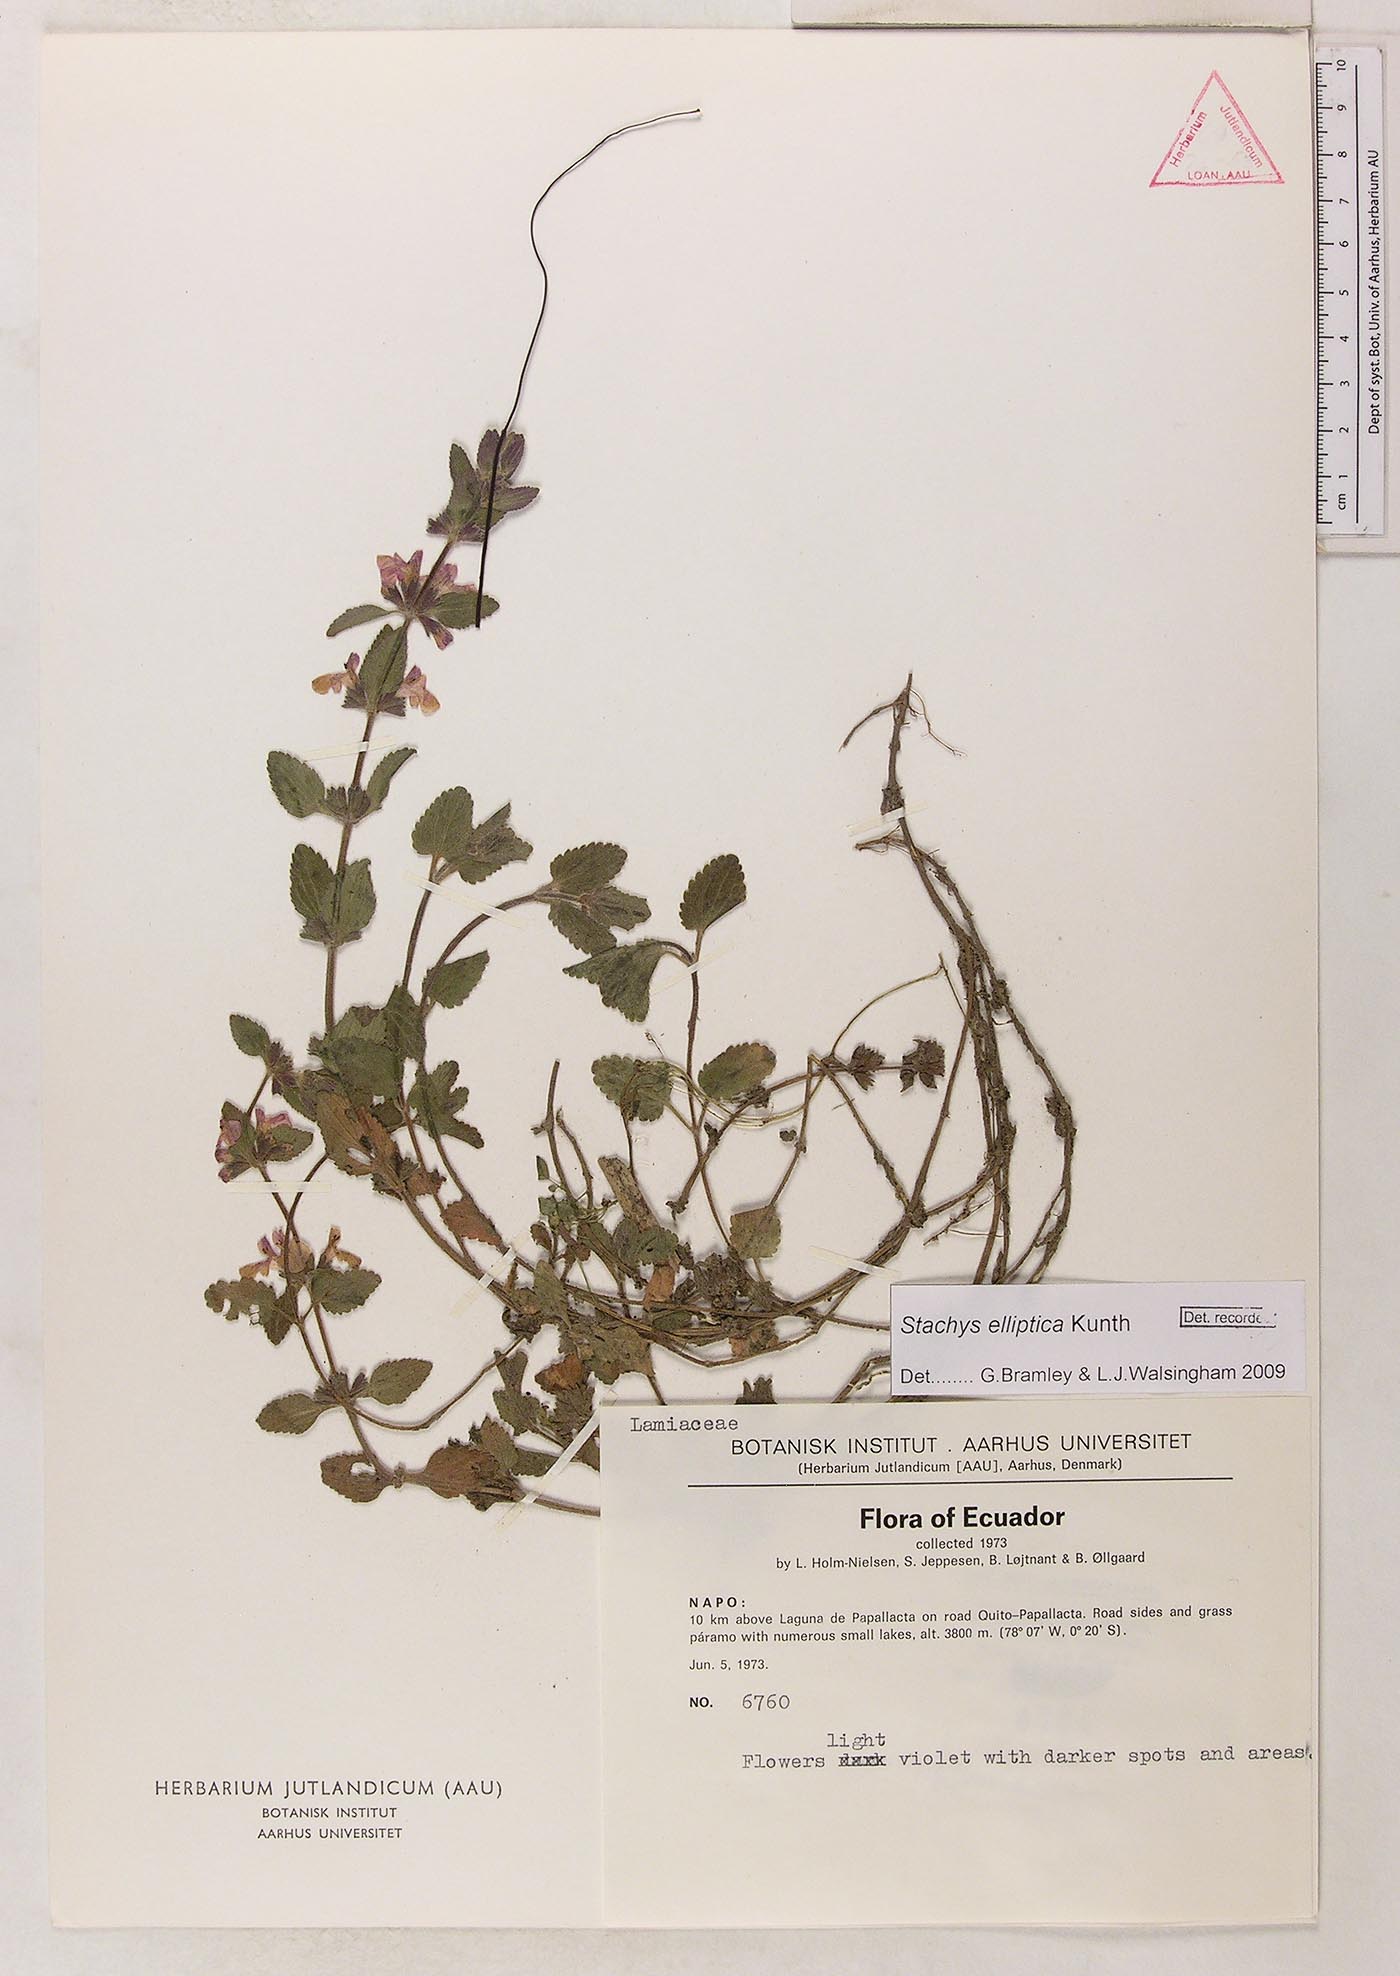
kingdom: Plantae
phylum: Tracheophyta
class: Magnoliopsida
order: Lamiales
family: Lamiaceae
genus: Stachys
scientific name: Stachys elliptica
